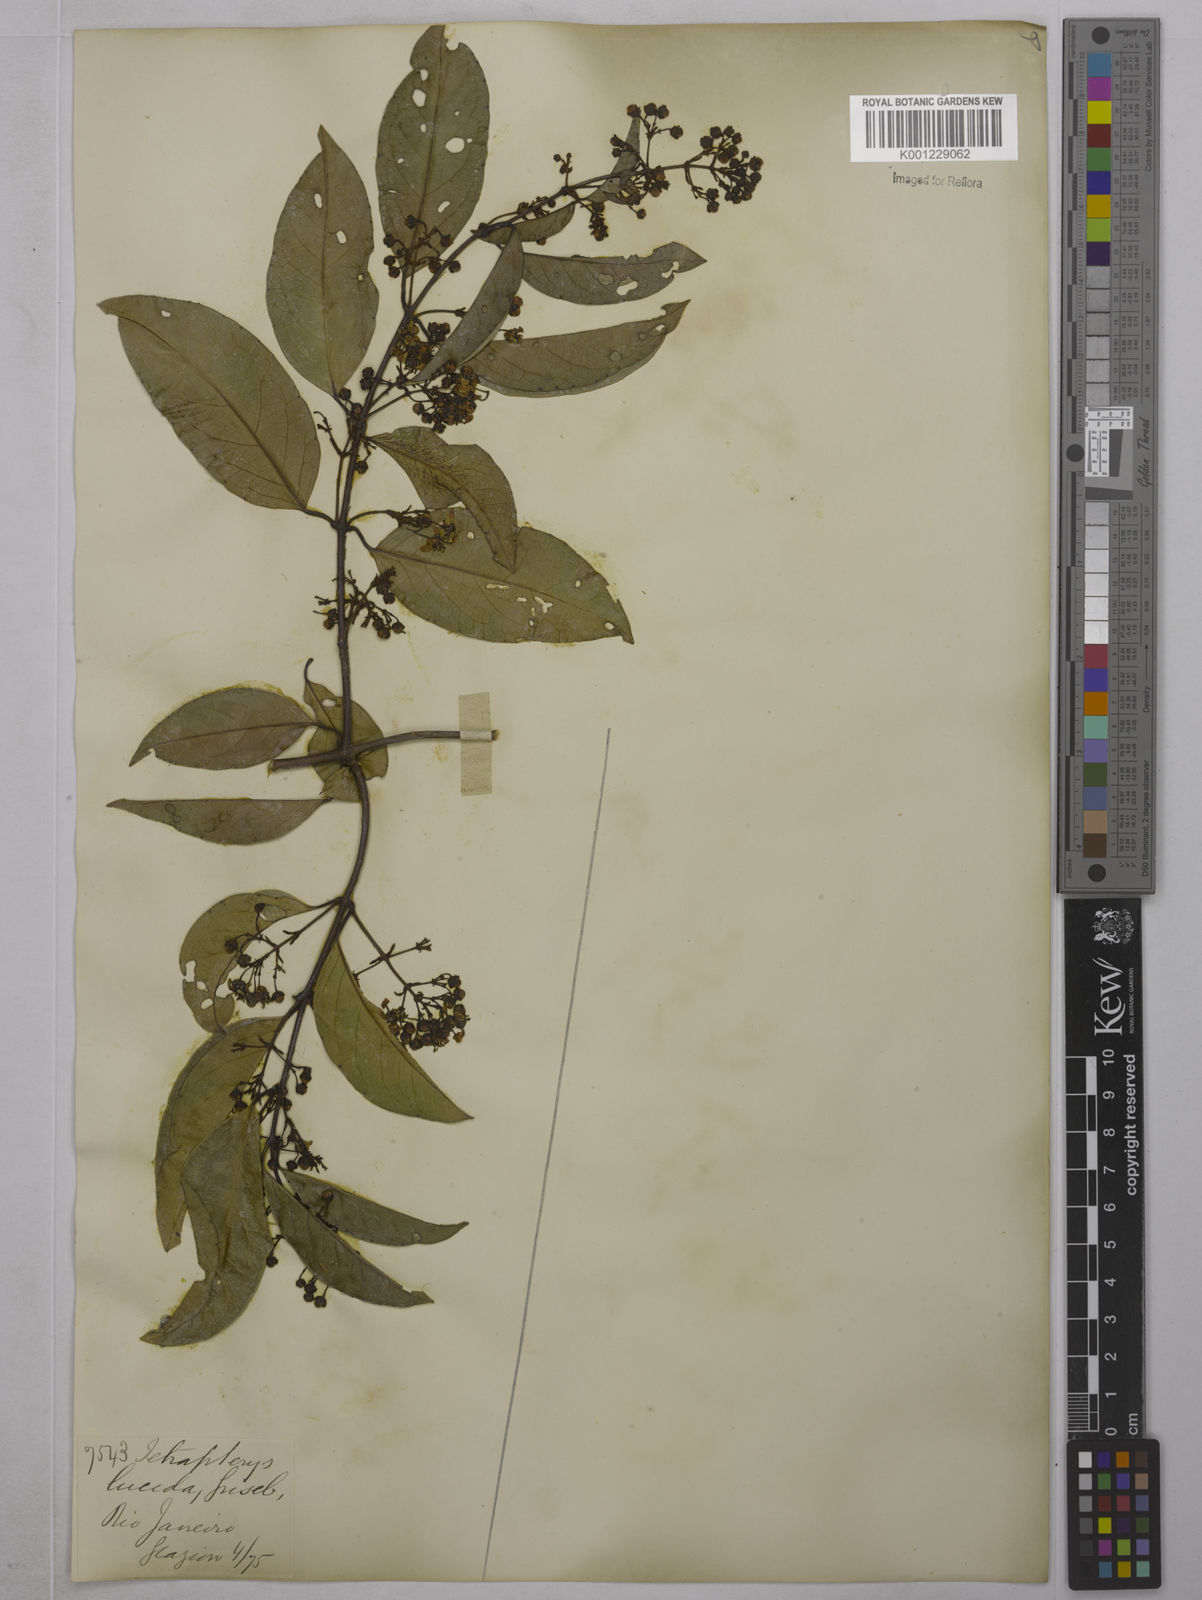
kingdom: Plantae
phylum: Tracheophyta
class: Magnoliopsida
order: Malpighiales
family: Malpighiaceae
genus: Niedenzuella
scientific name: Niedenzuella lucida
